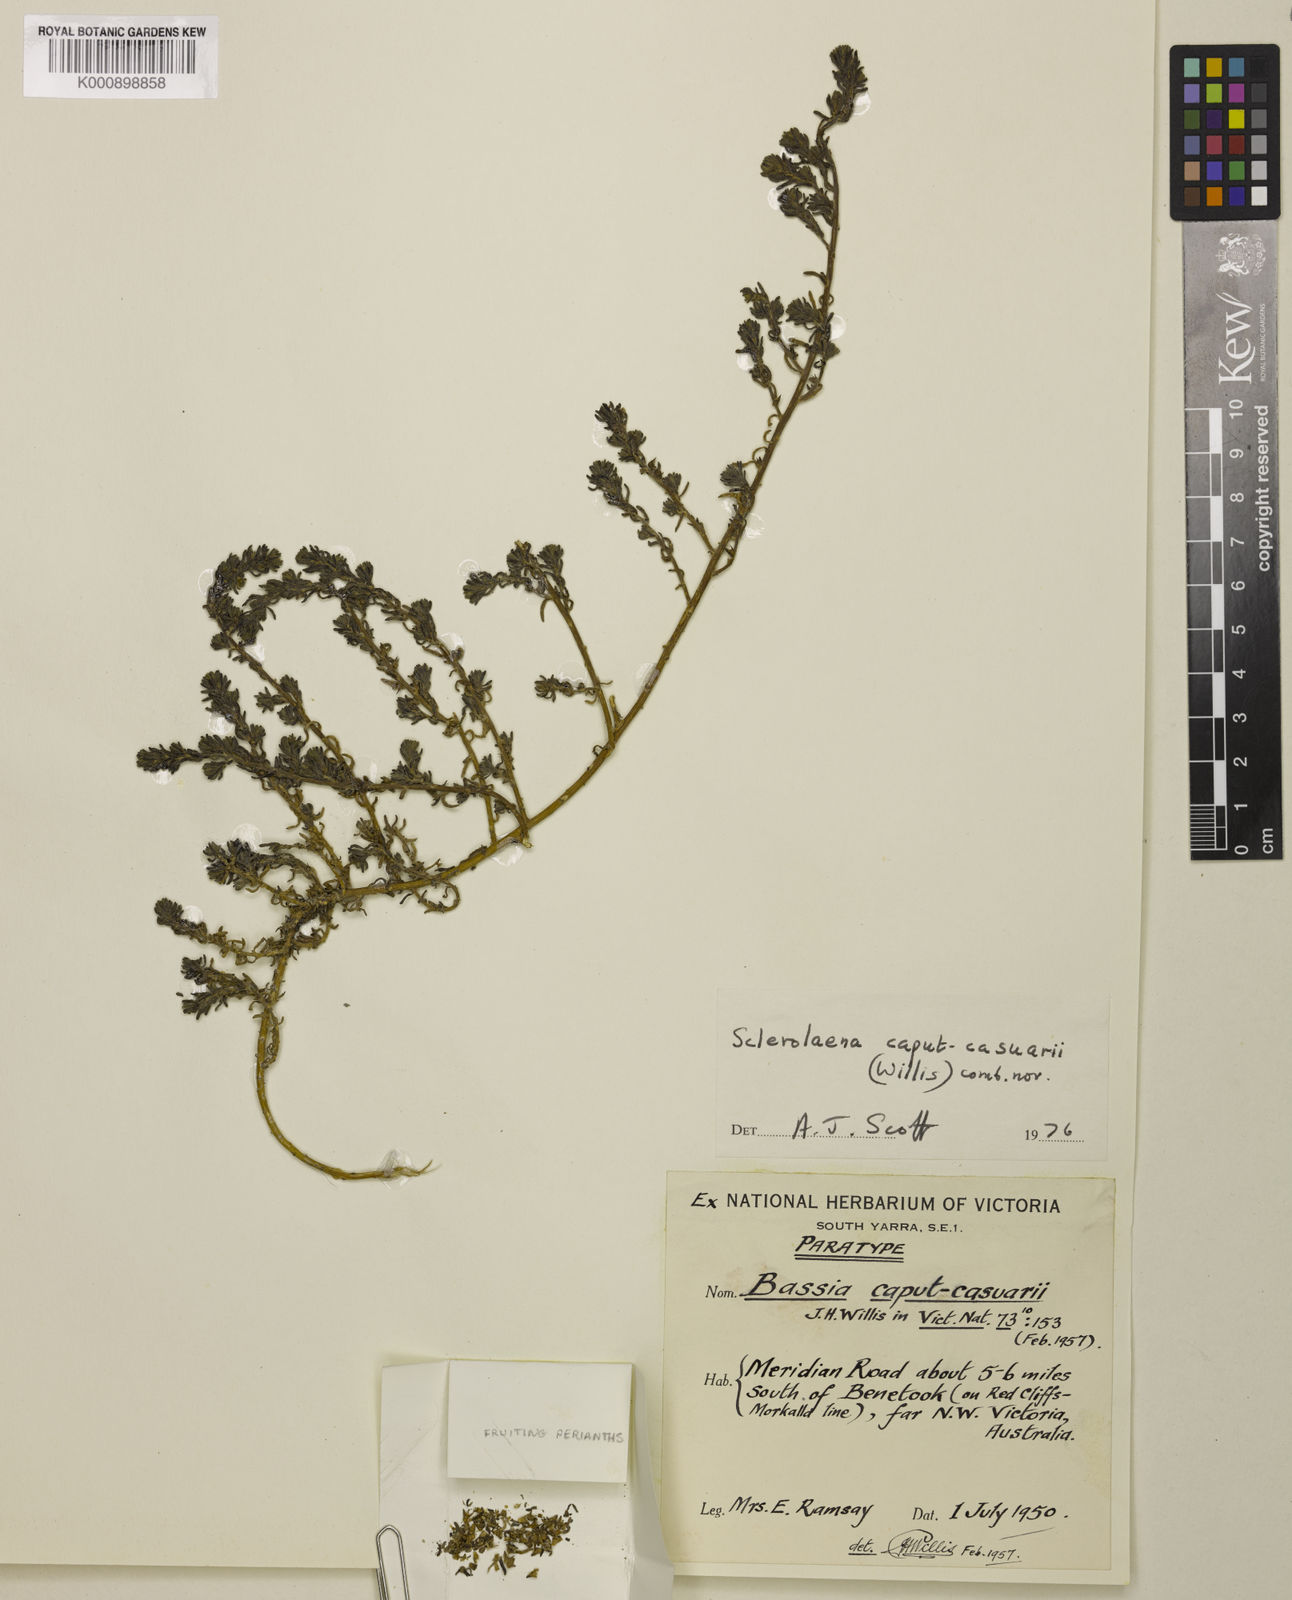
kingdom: Plantae
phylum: Tracheophyta
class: Magnoliopsida
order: Caryophyllales
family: Amaranthaceae
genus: Sclerolaena
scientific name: Sclerolaena caput-casuarii
